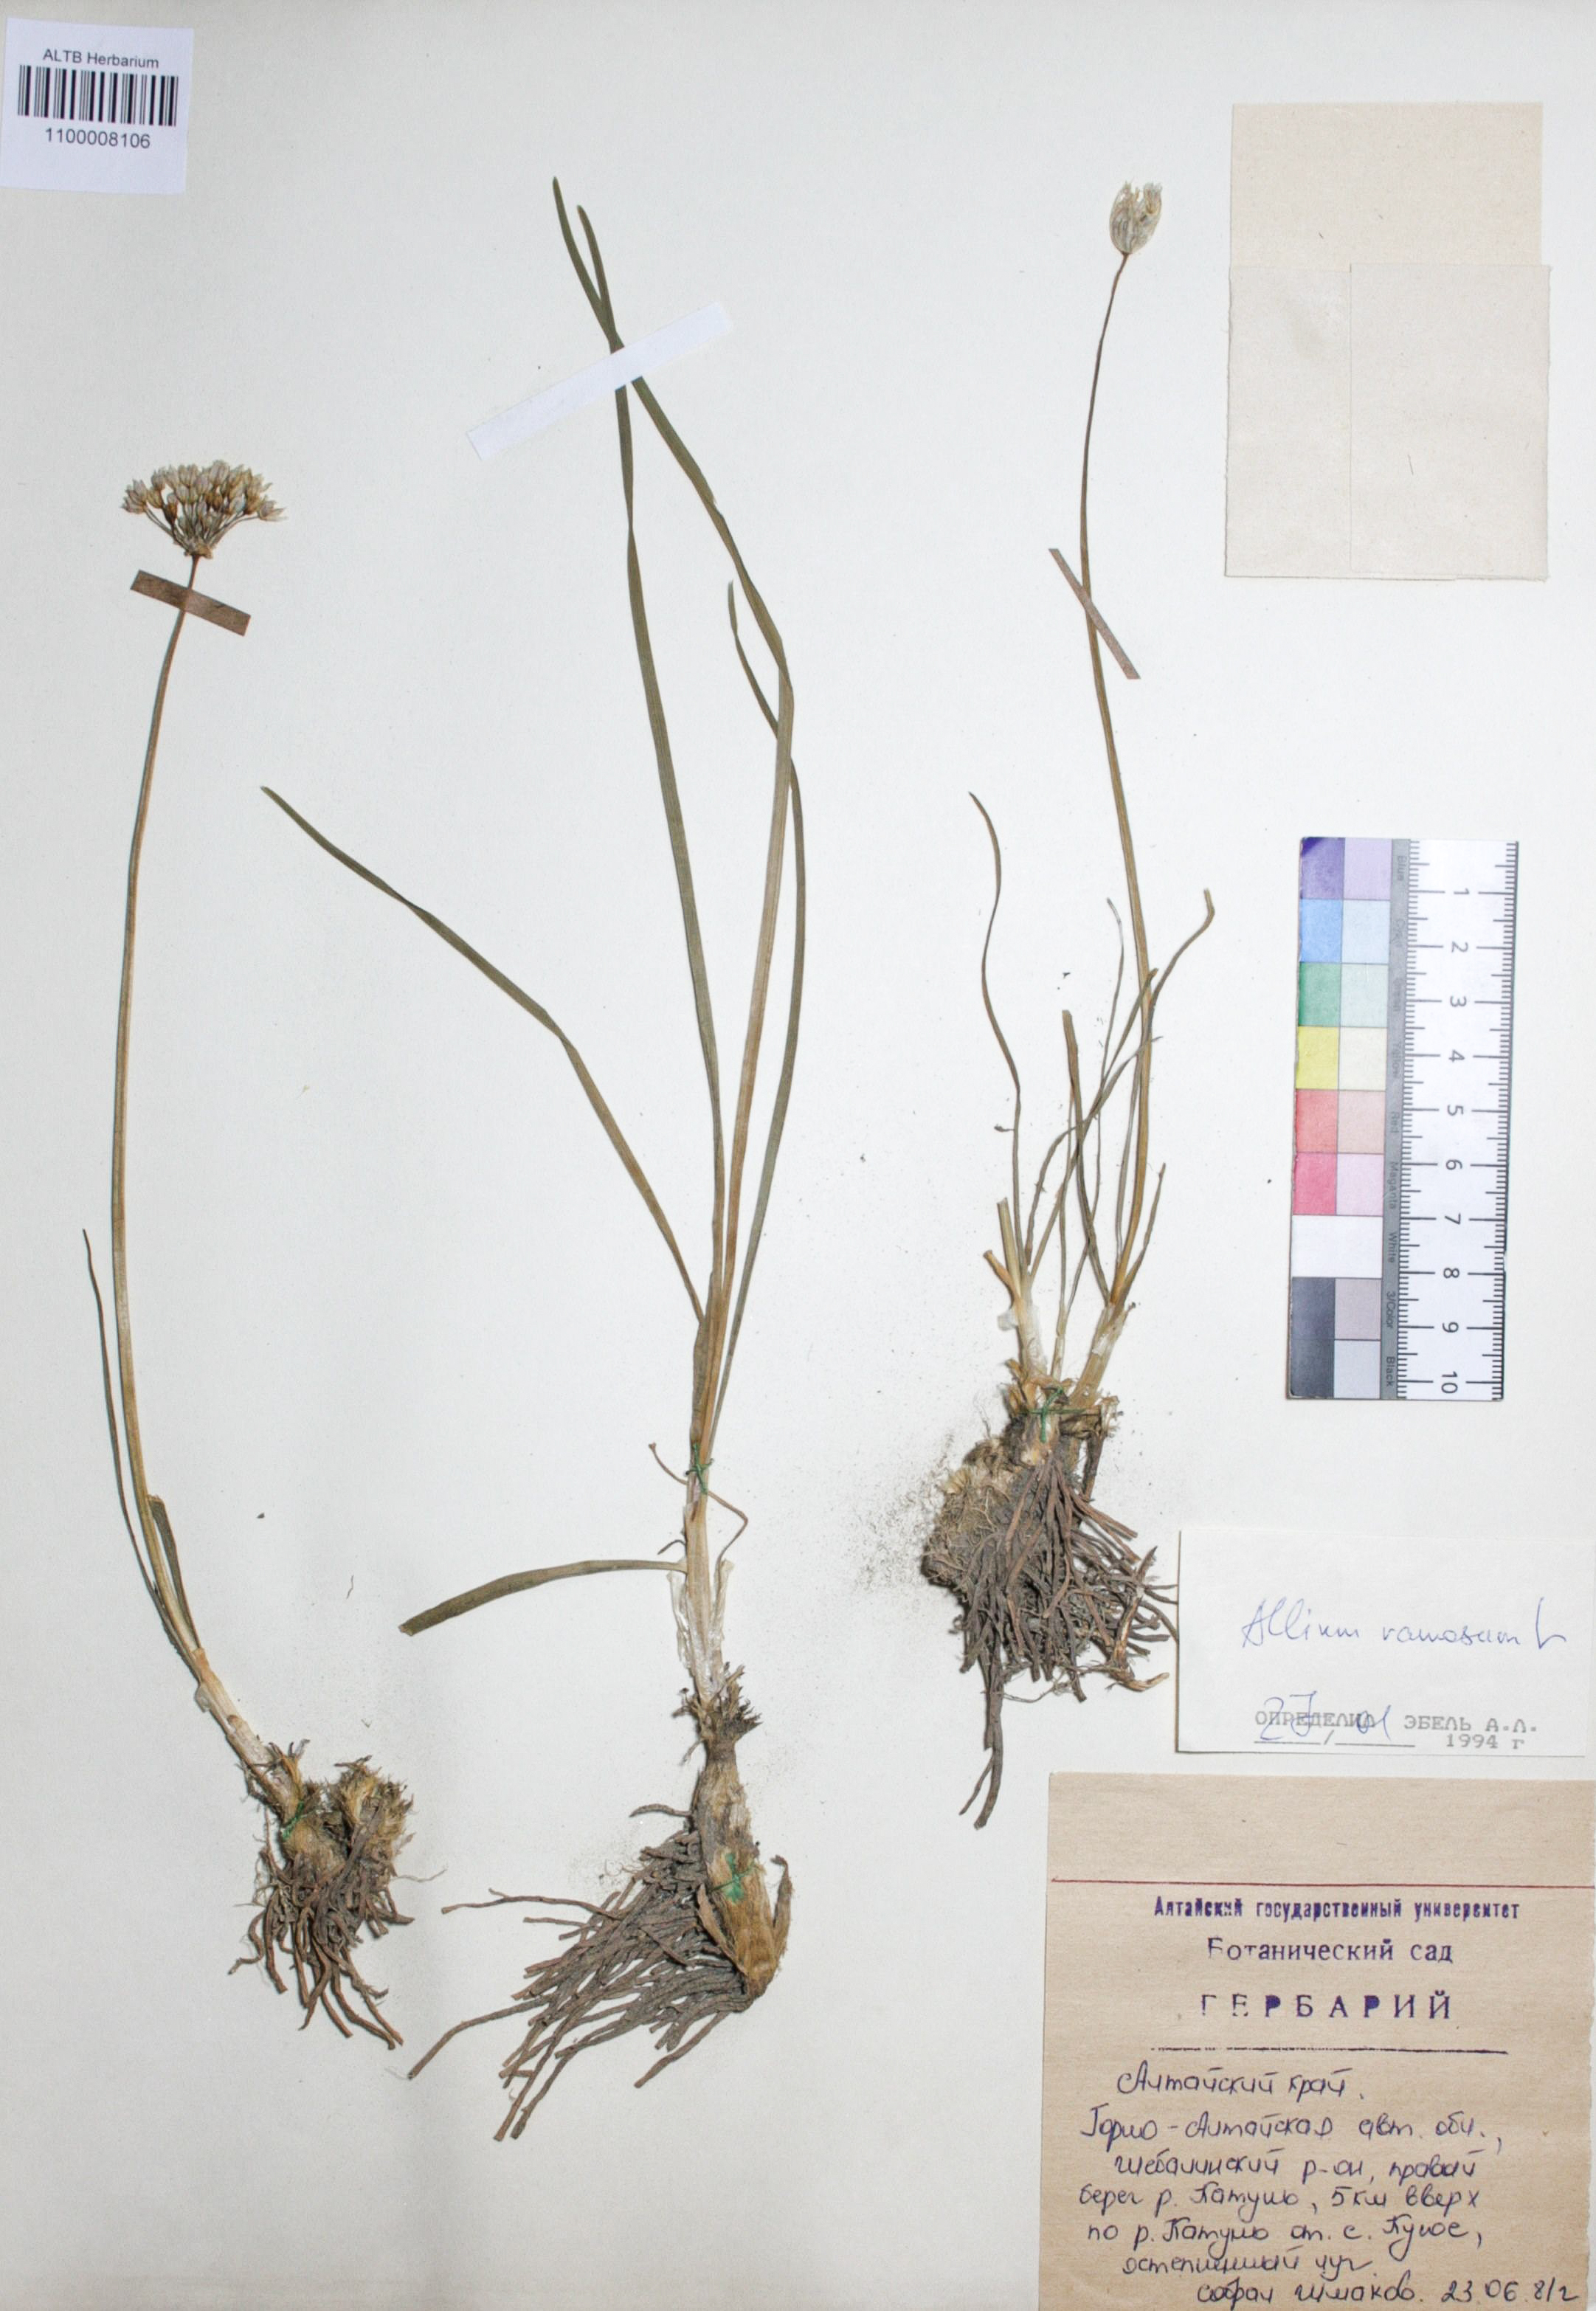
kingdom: Plantae
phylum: Tracheophyta
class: Liliopsida
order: Asparagales
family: Amaryllidaceae
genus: Allium
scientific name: Allium ramosum
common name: Fragrant garlic
